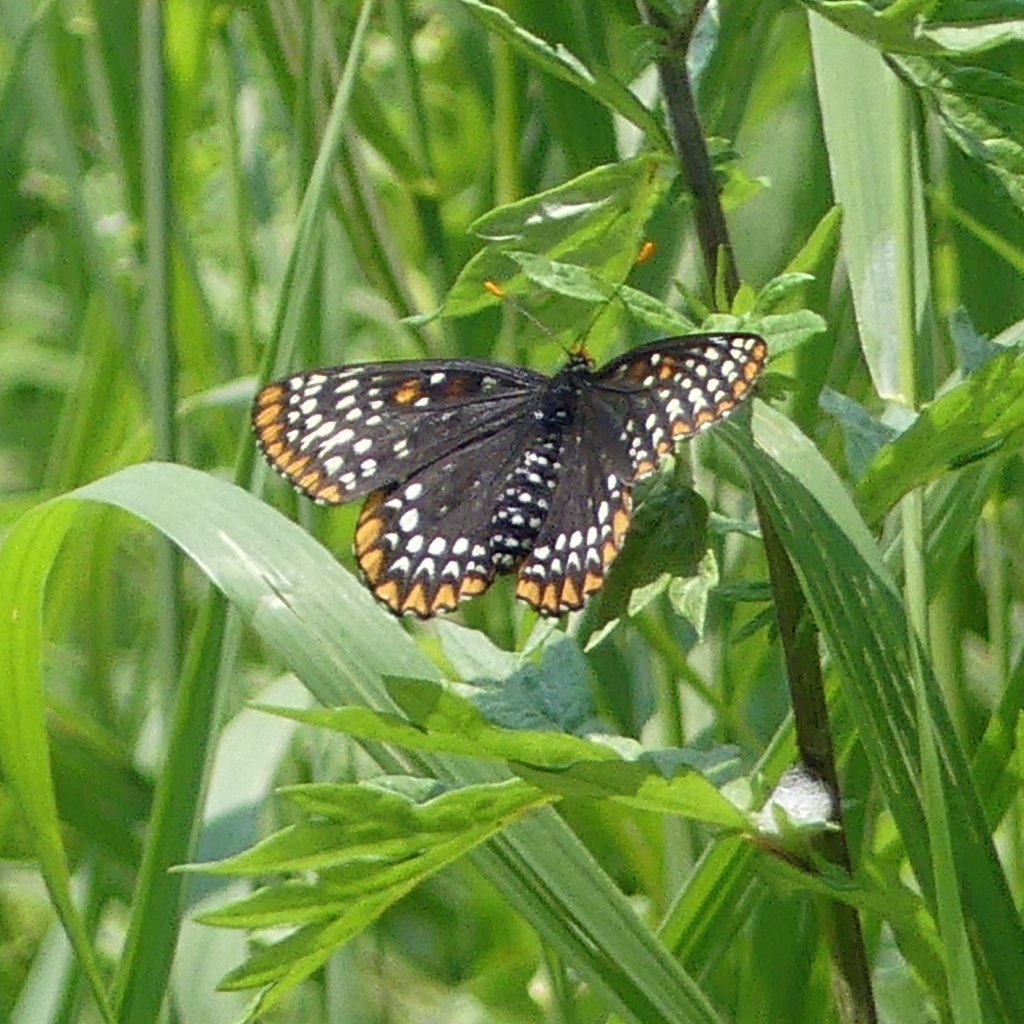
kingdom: Animalia
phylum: Arthropoda
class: Insecta
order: Lepidoptera
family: Nymphalidae
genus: Euphydryas
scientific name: Euphydryas phaeton
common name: Baltimore Checkerspot
